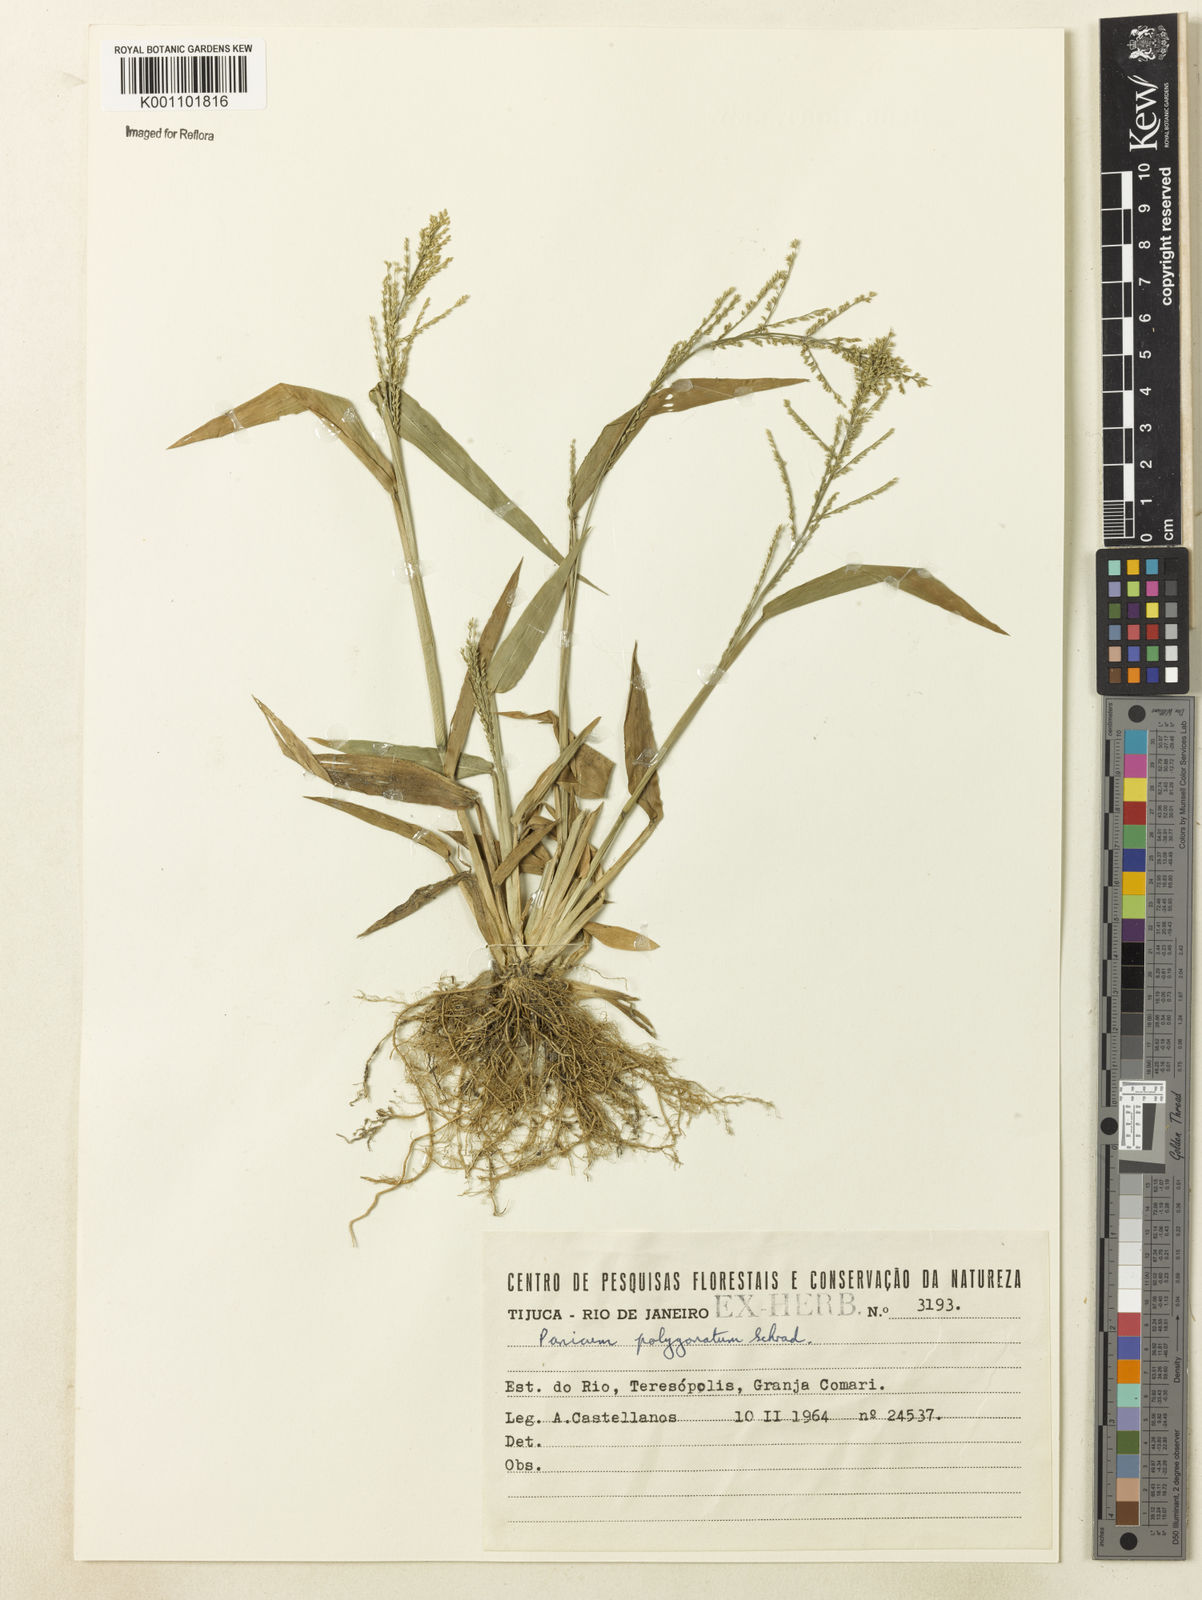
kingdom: Plantae
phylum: Tracheophyta
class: Liliopsida
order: Poales
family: Poaceae
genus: Rugoloa
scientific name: Rugoloa polygonata
